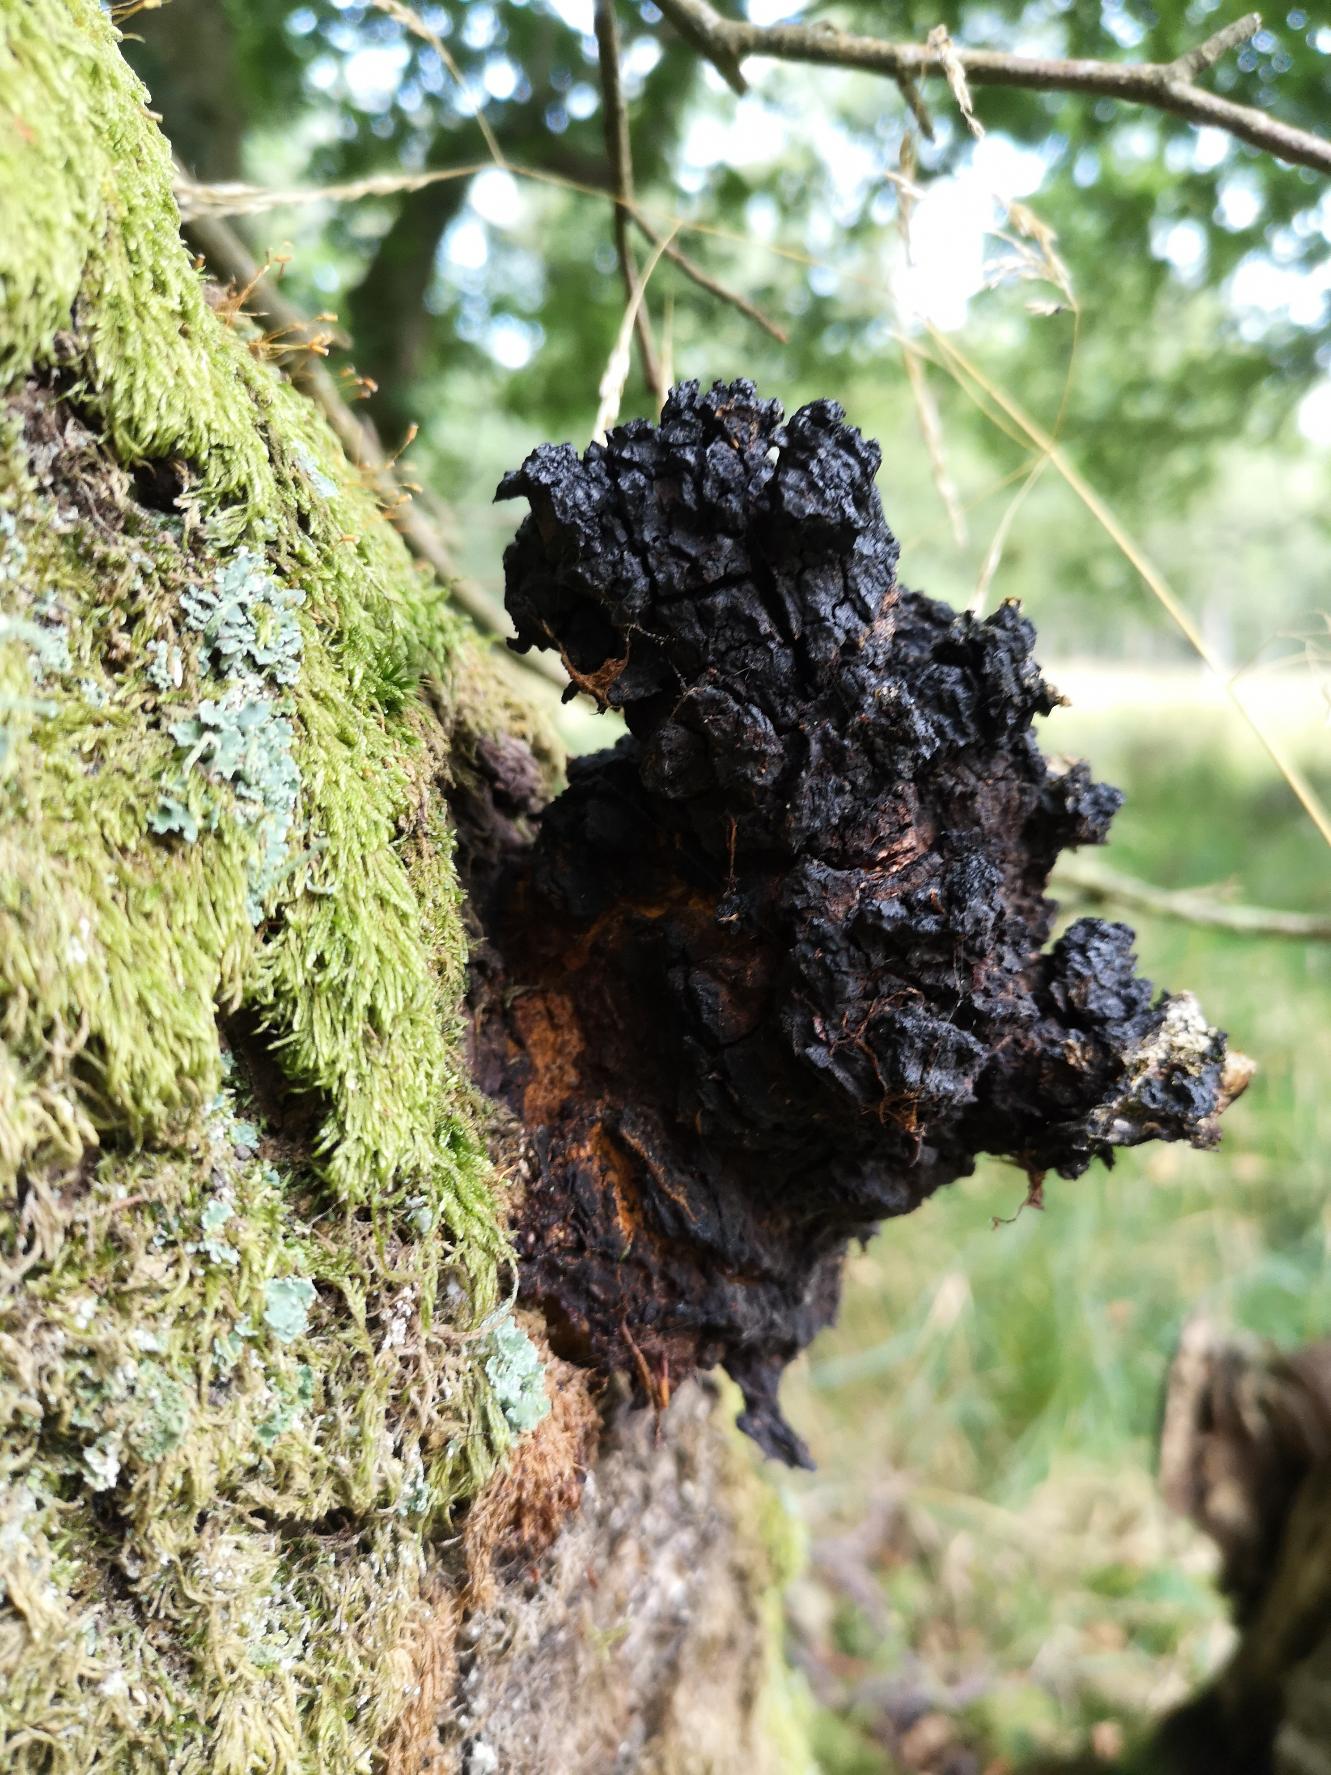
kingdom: Fungi
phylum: Basidiomycota
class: Agaricomycetes
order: Hymenochaetales
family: Hymenochaetaceae
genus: Inonotus
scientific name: Inonotus obliquus
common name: Birke-spejlporesvamp
